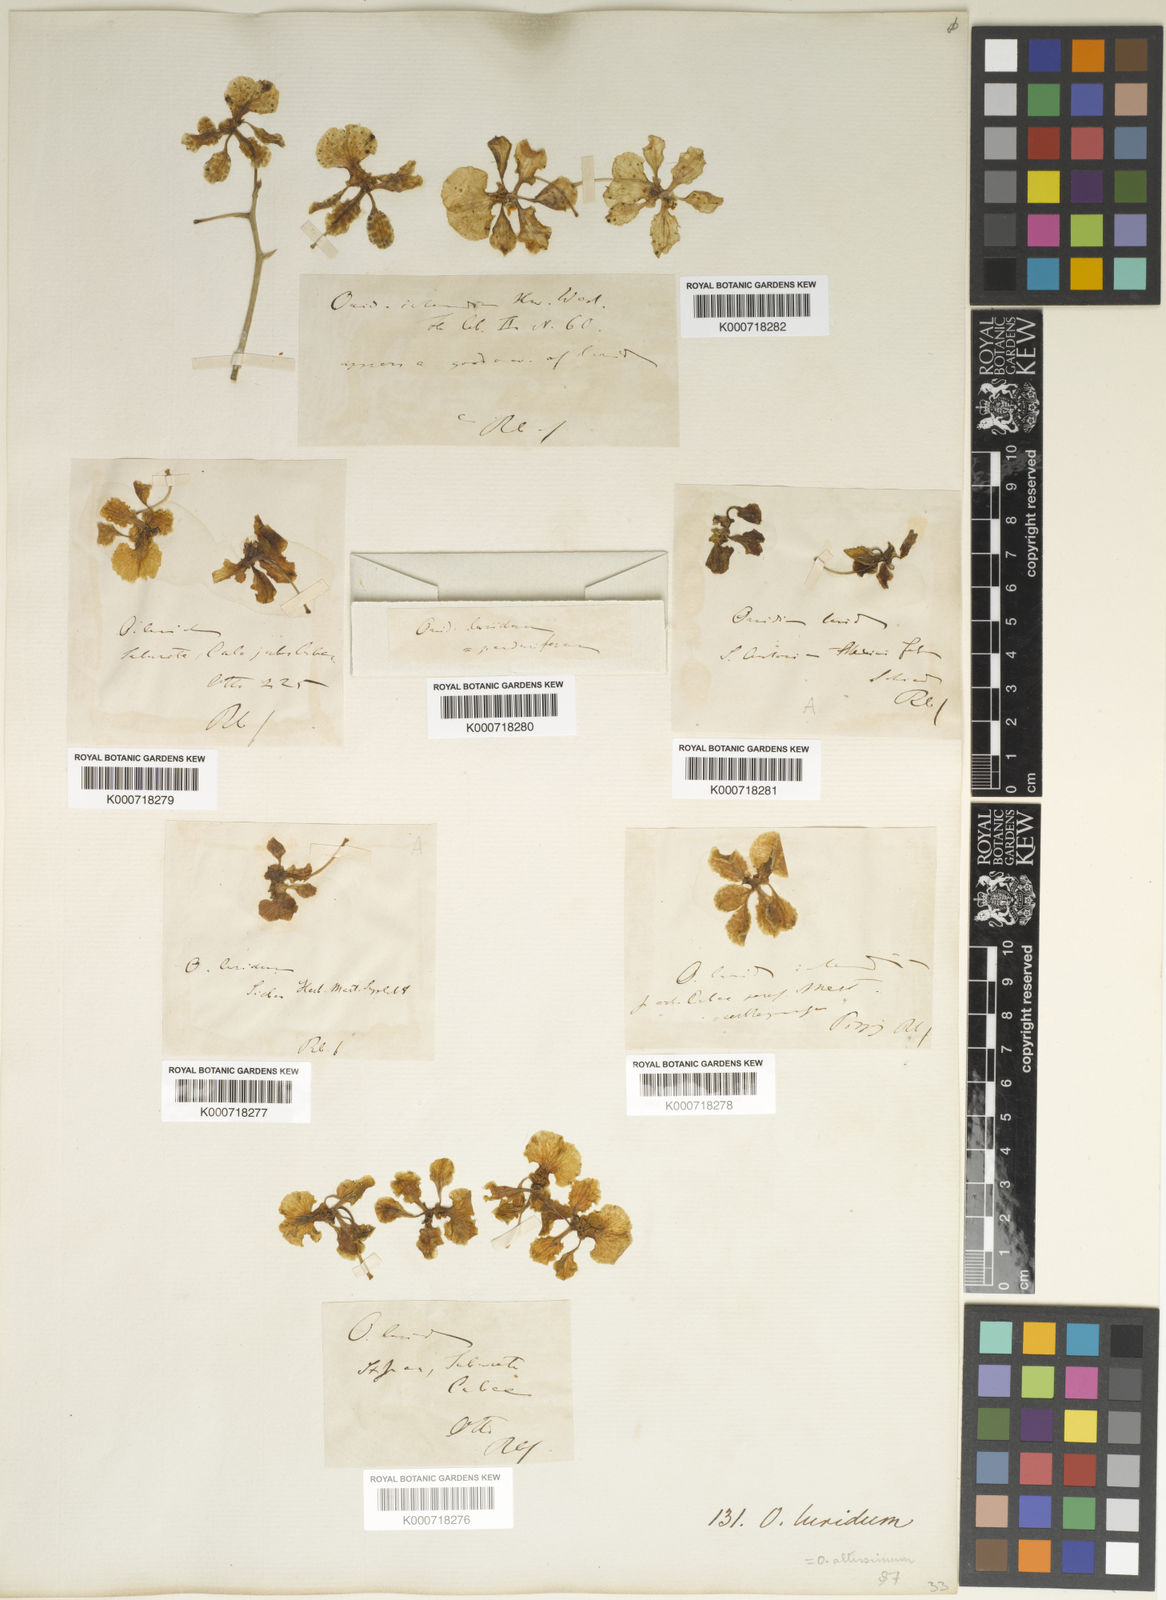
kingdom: Plantae
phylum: Tracheophyta
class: Liliopsida
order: Asparagales
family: Orchidaceae
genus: Trichocentrum
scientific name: Trichocentrum luridum
